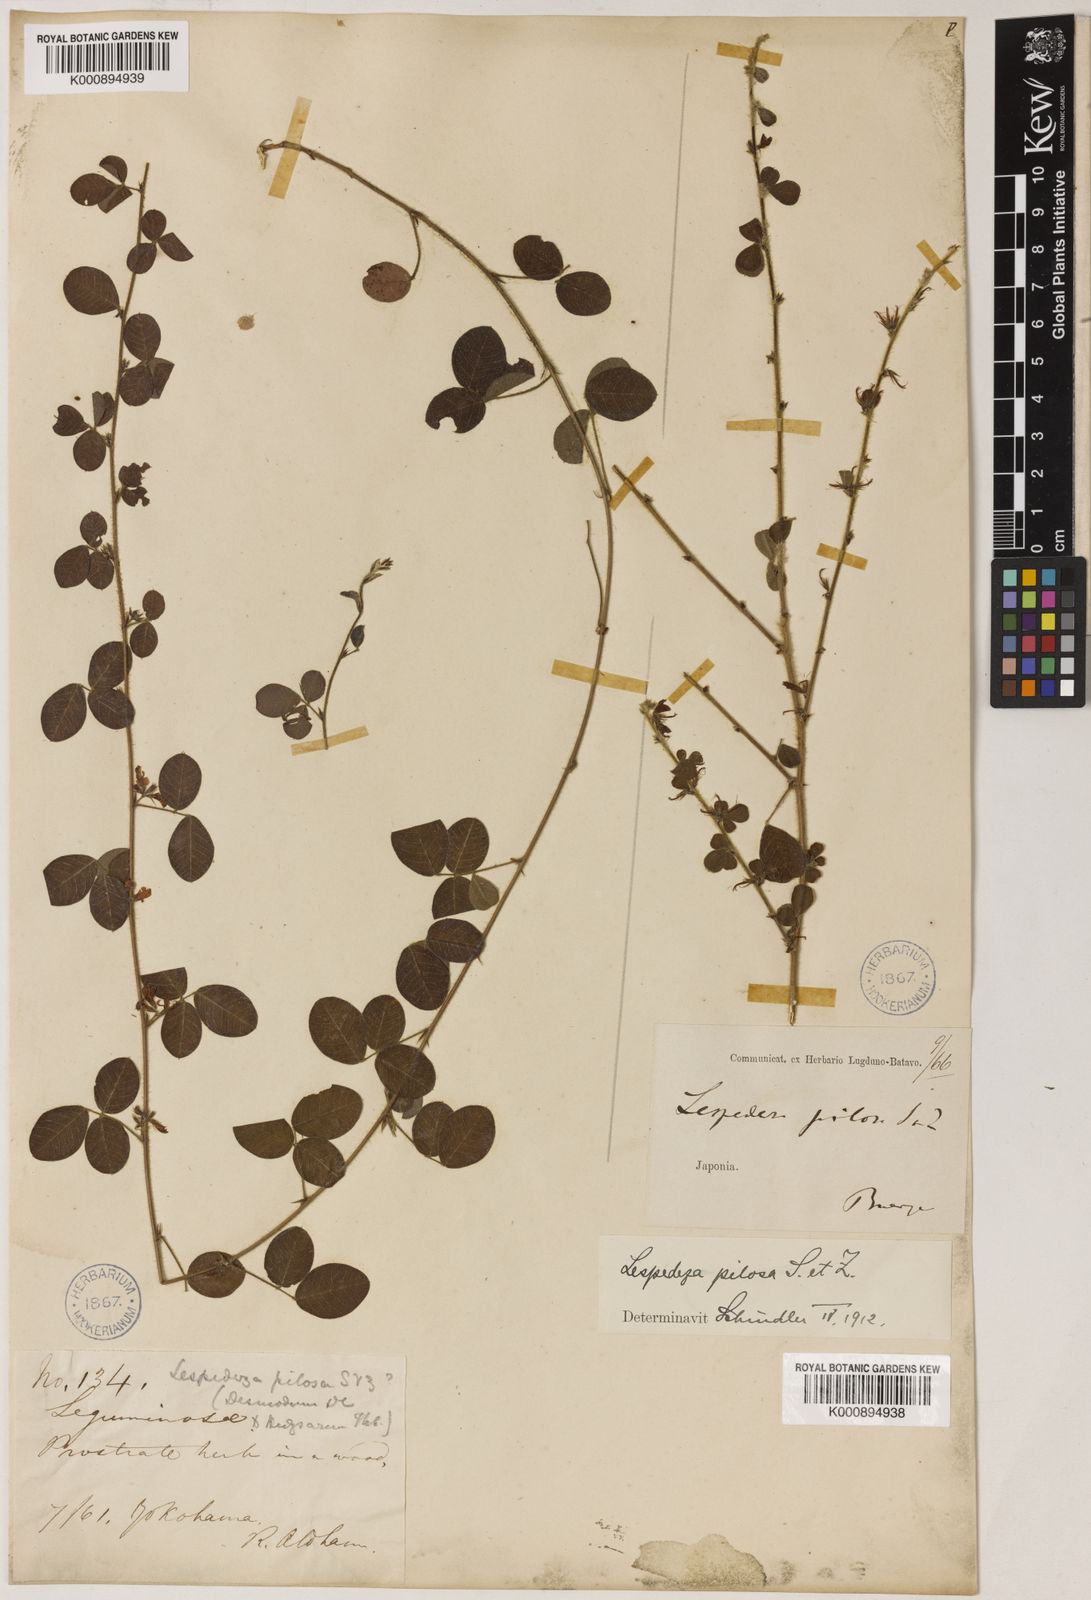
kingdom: Plantae
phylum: Tracheophyta
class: Magnoliopsida
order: Fabales
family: Fabaceae
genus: Lespedeza
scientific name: Lespedeza pilosa
